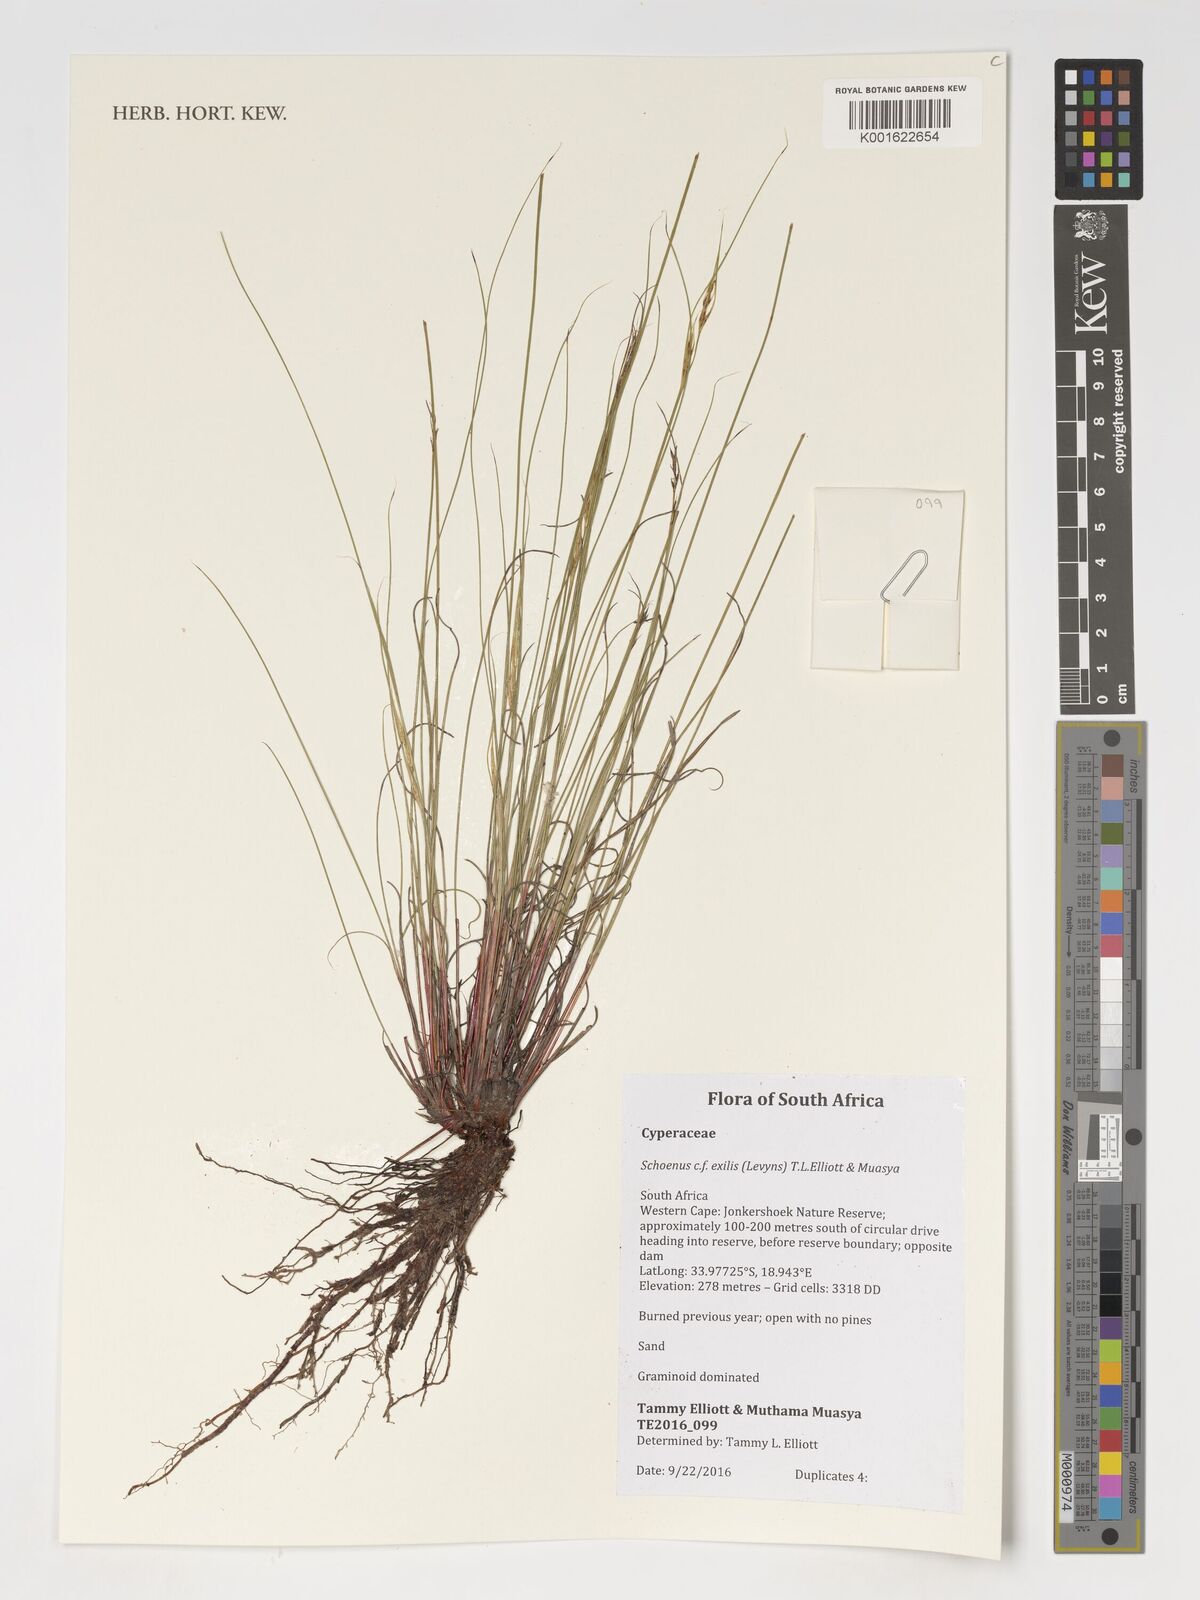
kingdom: Plantae
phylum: Tracheophyta
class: Liliopsida
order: Poales
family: Cyperaceae
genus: Schoenus
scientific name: Schoenus exilis
